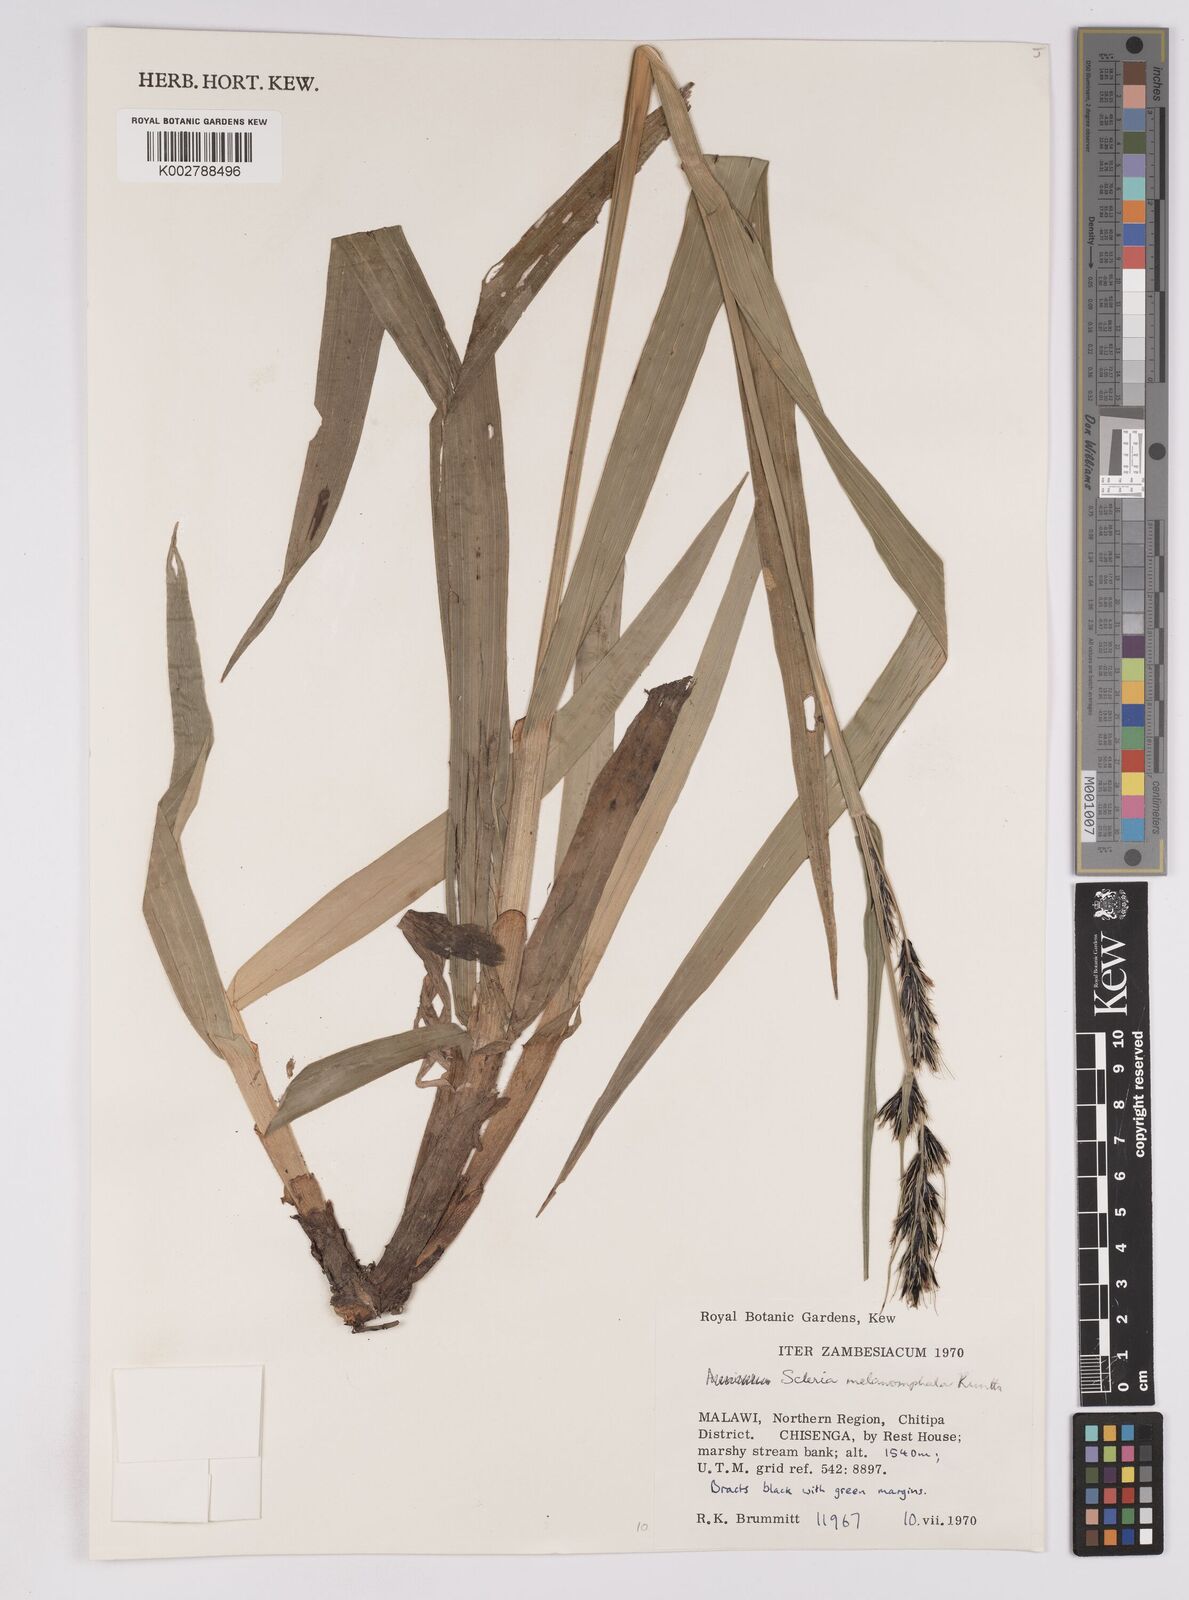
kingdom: Plantae
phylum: Tracheophyta
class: Liliopsida
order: Poales
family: Cyperaceae
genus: Scleria
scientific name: Scleria melanomphala
